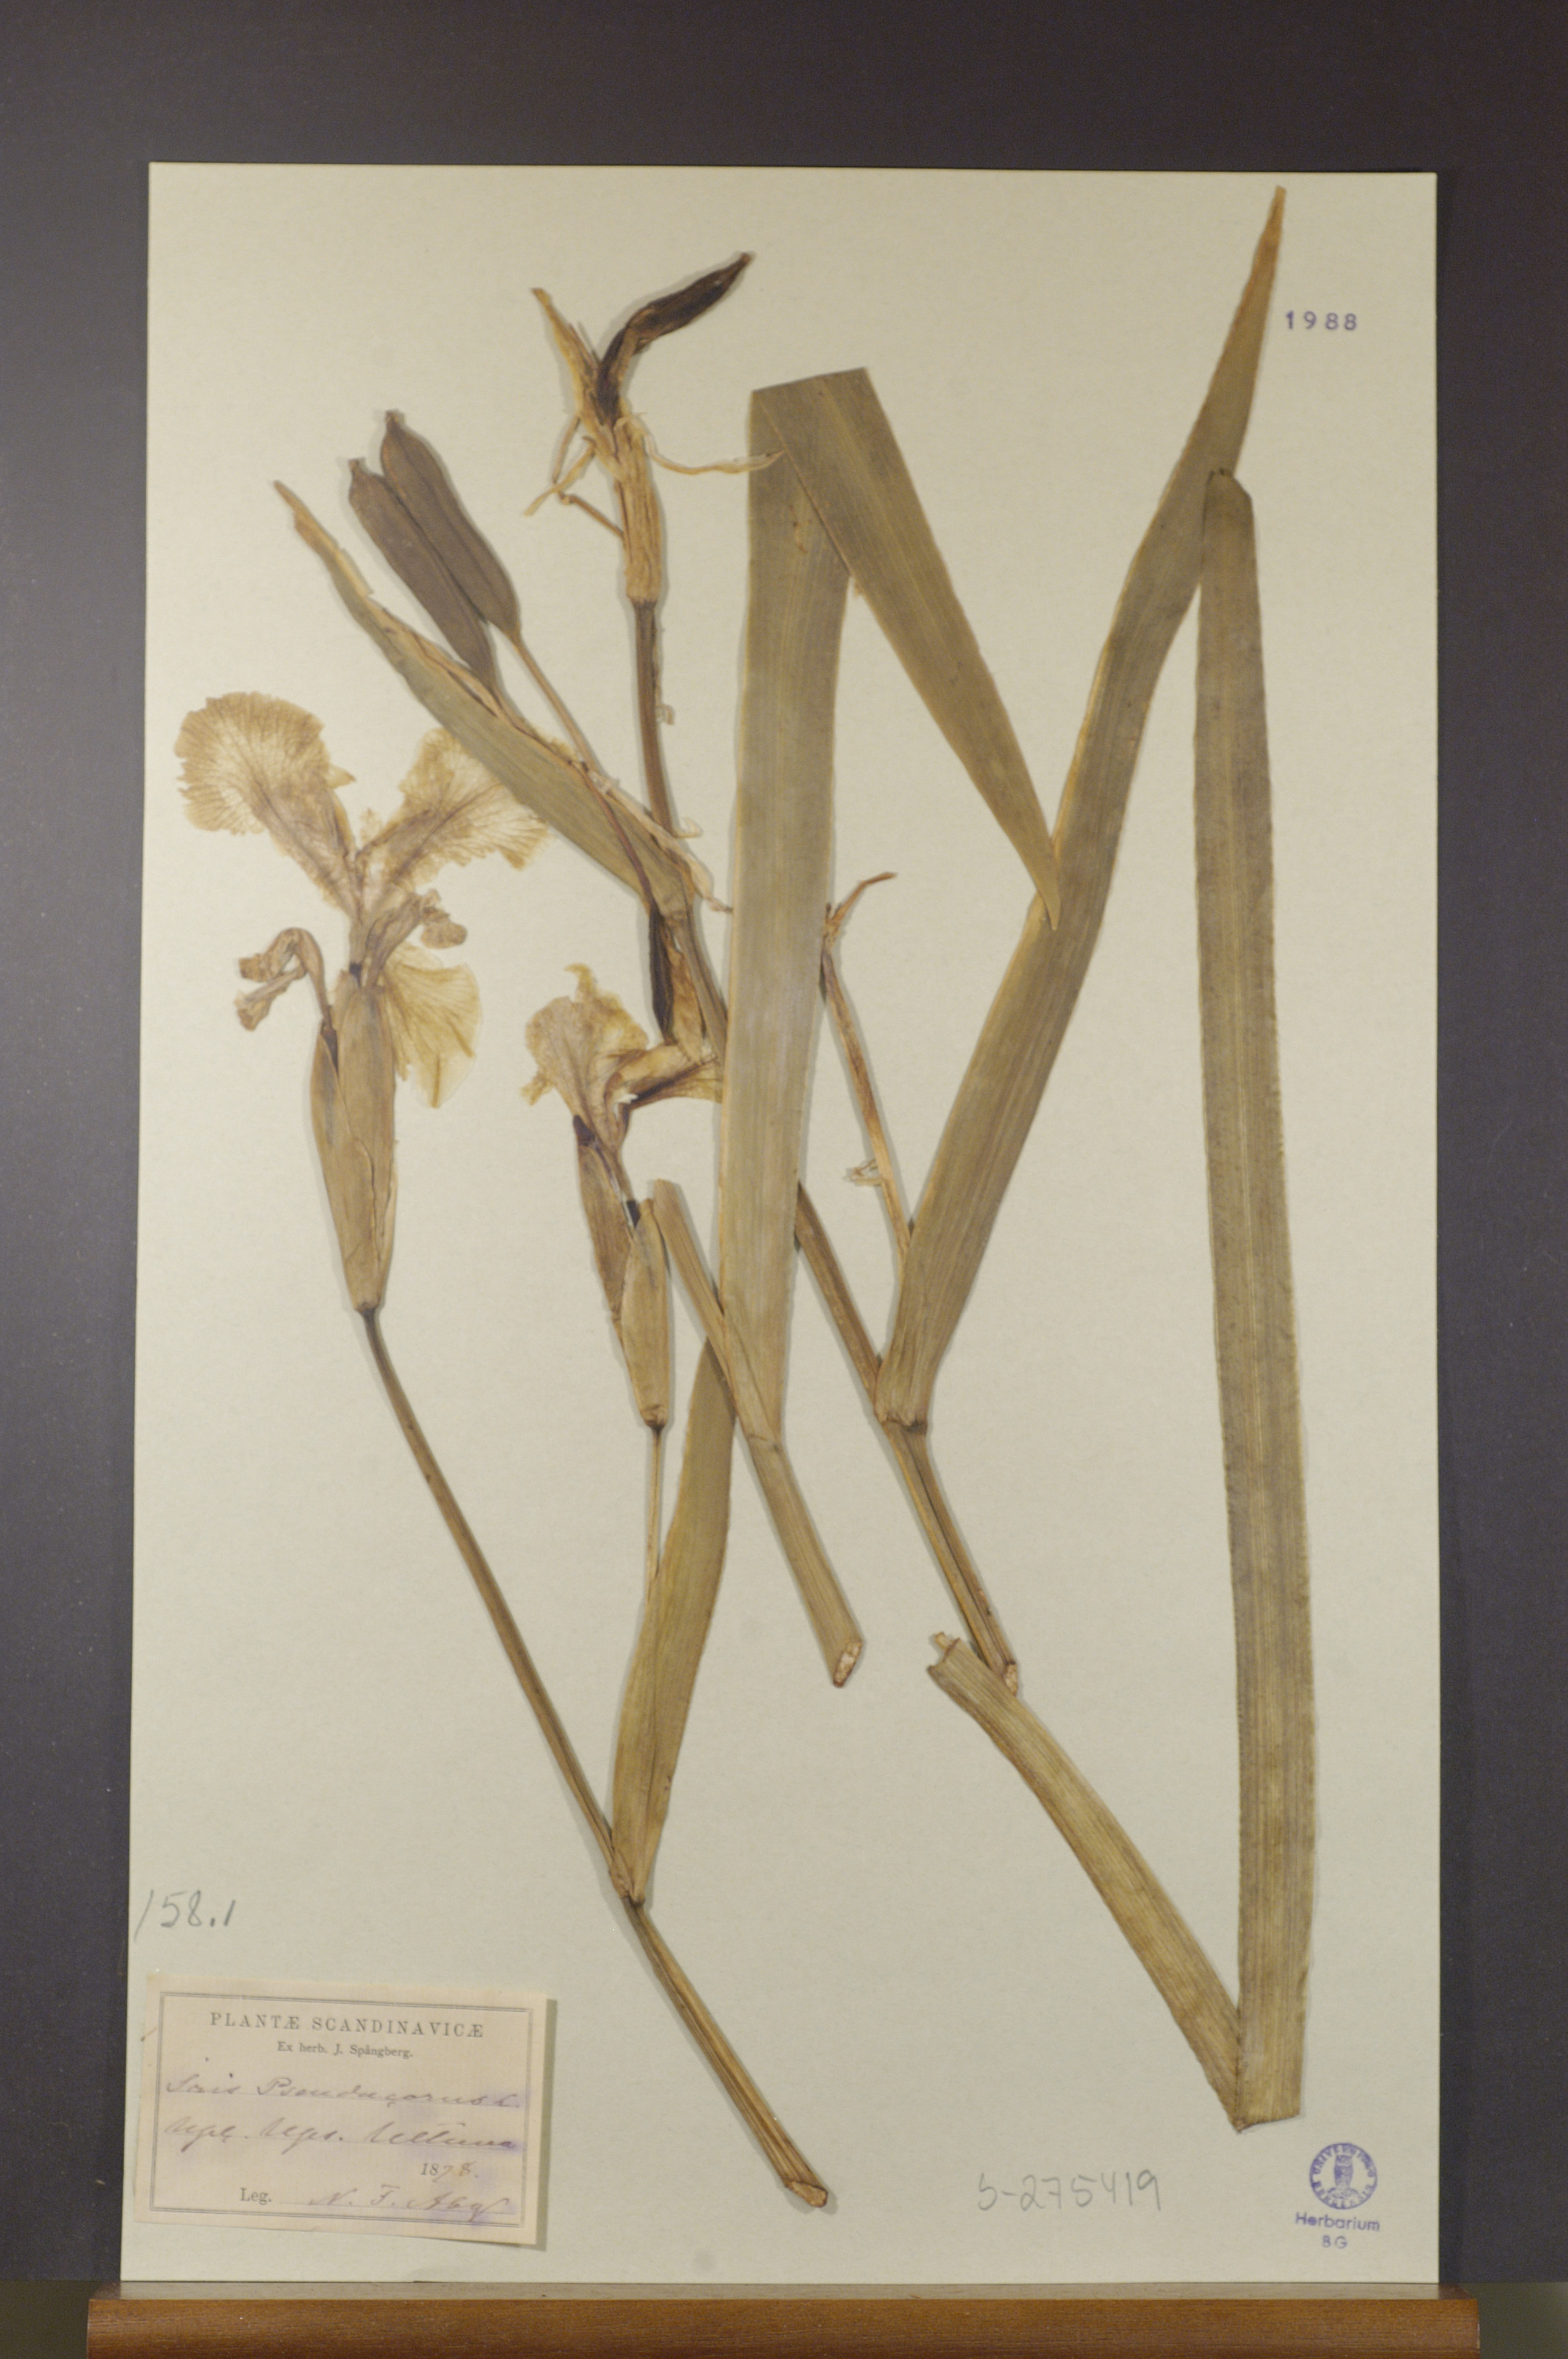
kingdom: Plantae
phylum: Tracheophyta
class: Liliopsida
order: Asparagales
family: Iridaceae
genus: Iris
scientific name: Iris pseudacorus
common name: Yellow flag
